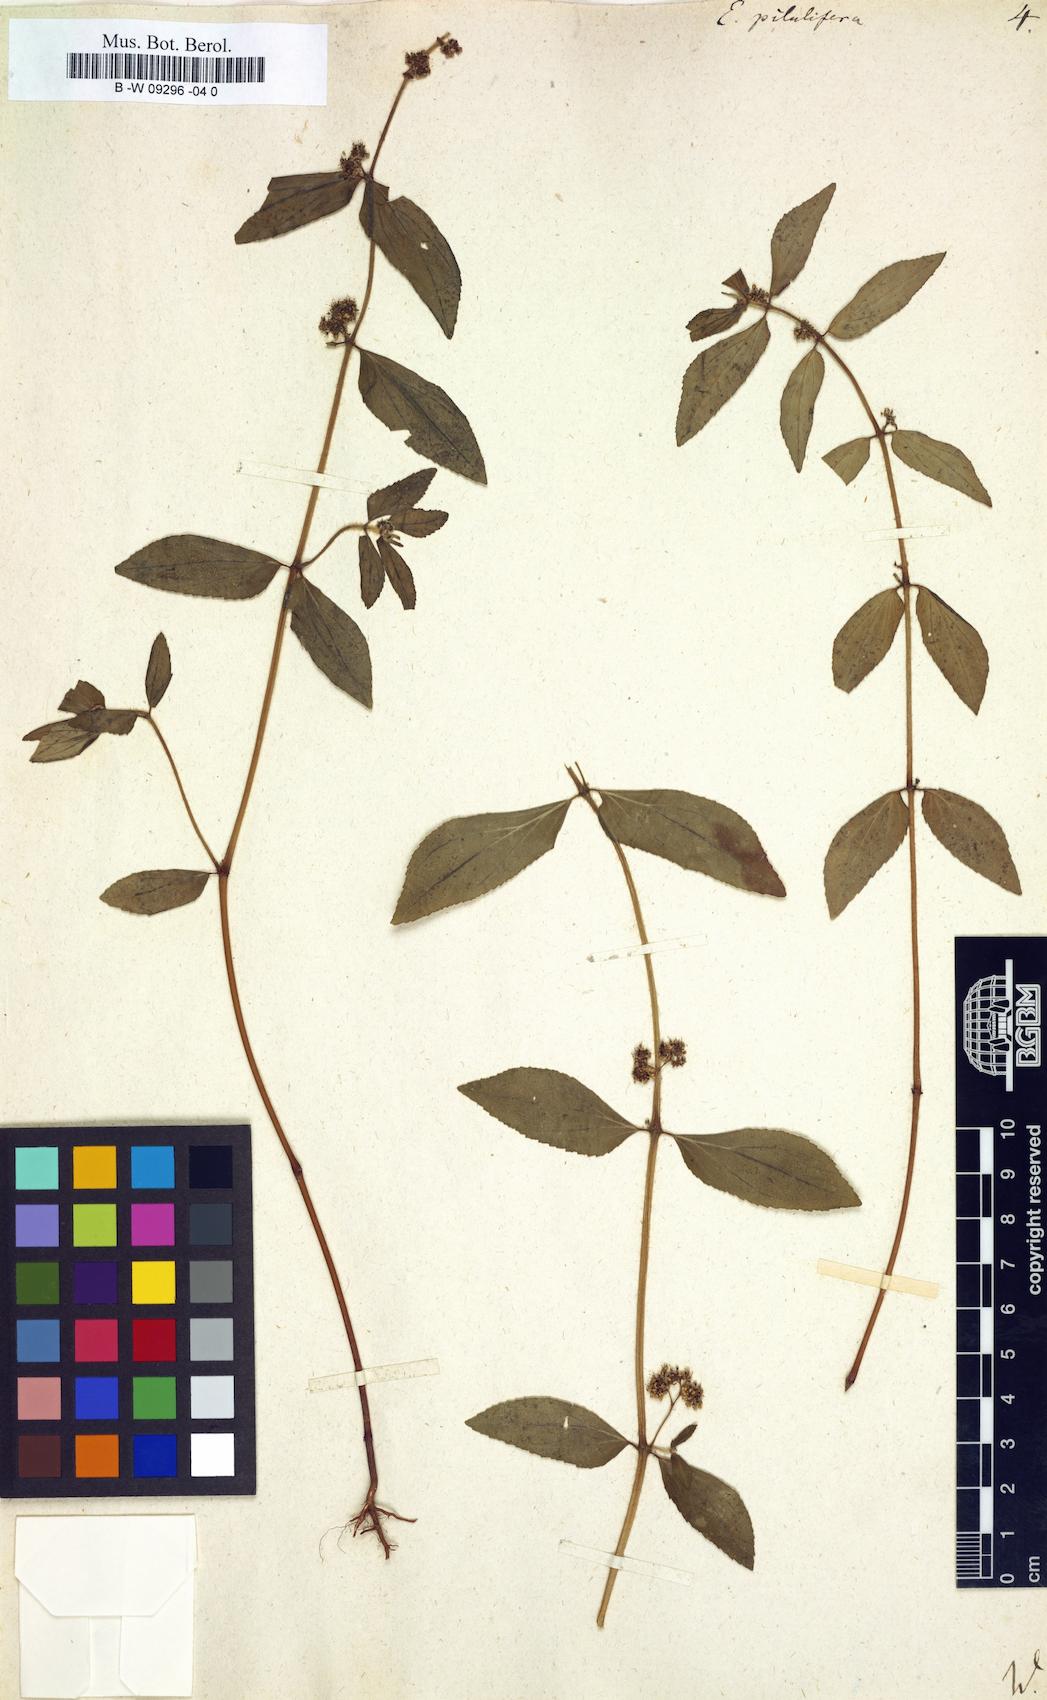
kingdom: Plantae
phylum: Tracheophyta
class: Magnoliopsida
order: Malpighiales
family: Euphorbiaceae
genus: Euphorbia
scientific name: Euphorbia pilulifera
